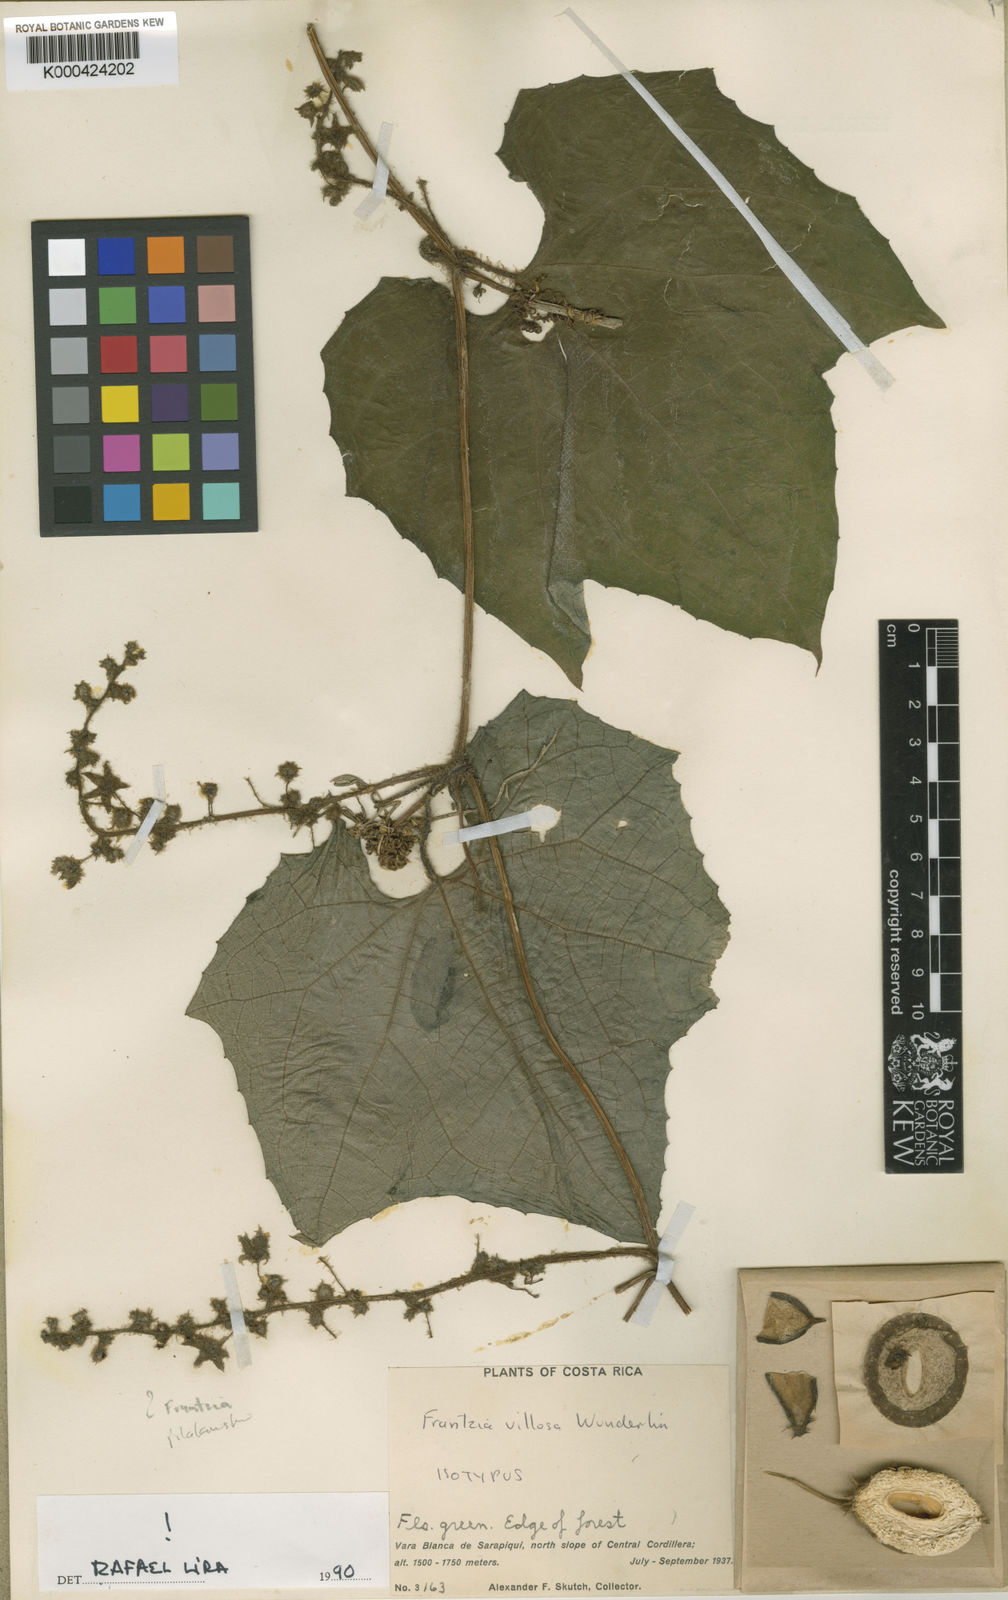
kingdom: Plantae
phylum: Tracheophyta
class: Magnoliopsida
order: Cucurbitales
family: Cucurbitaceae
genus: Frantzia
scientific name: Frantzia villosa
